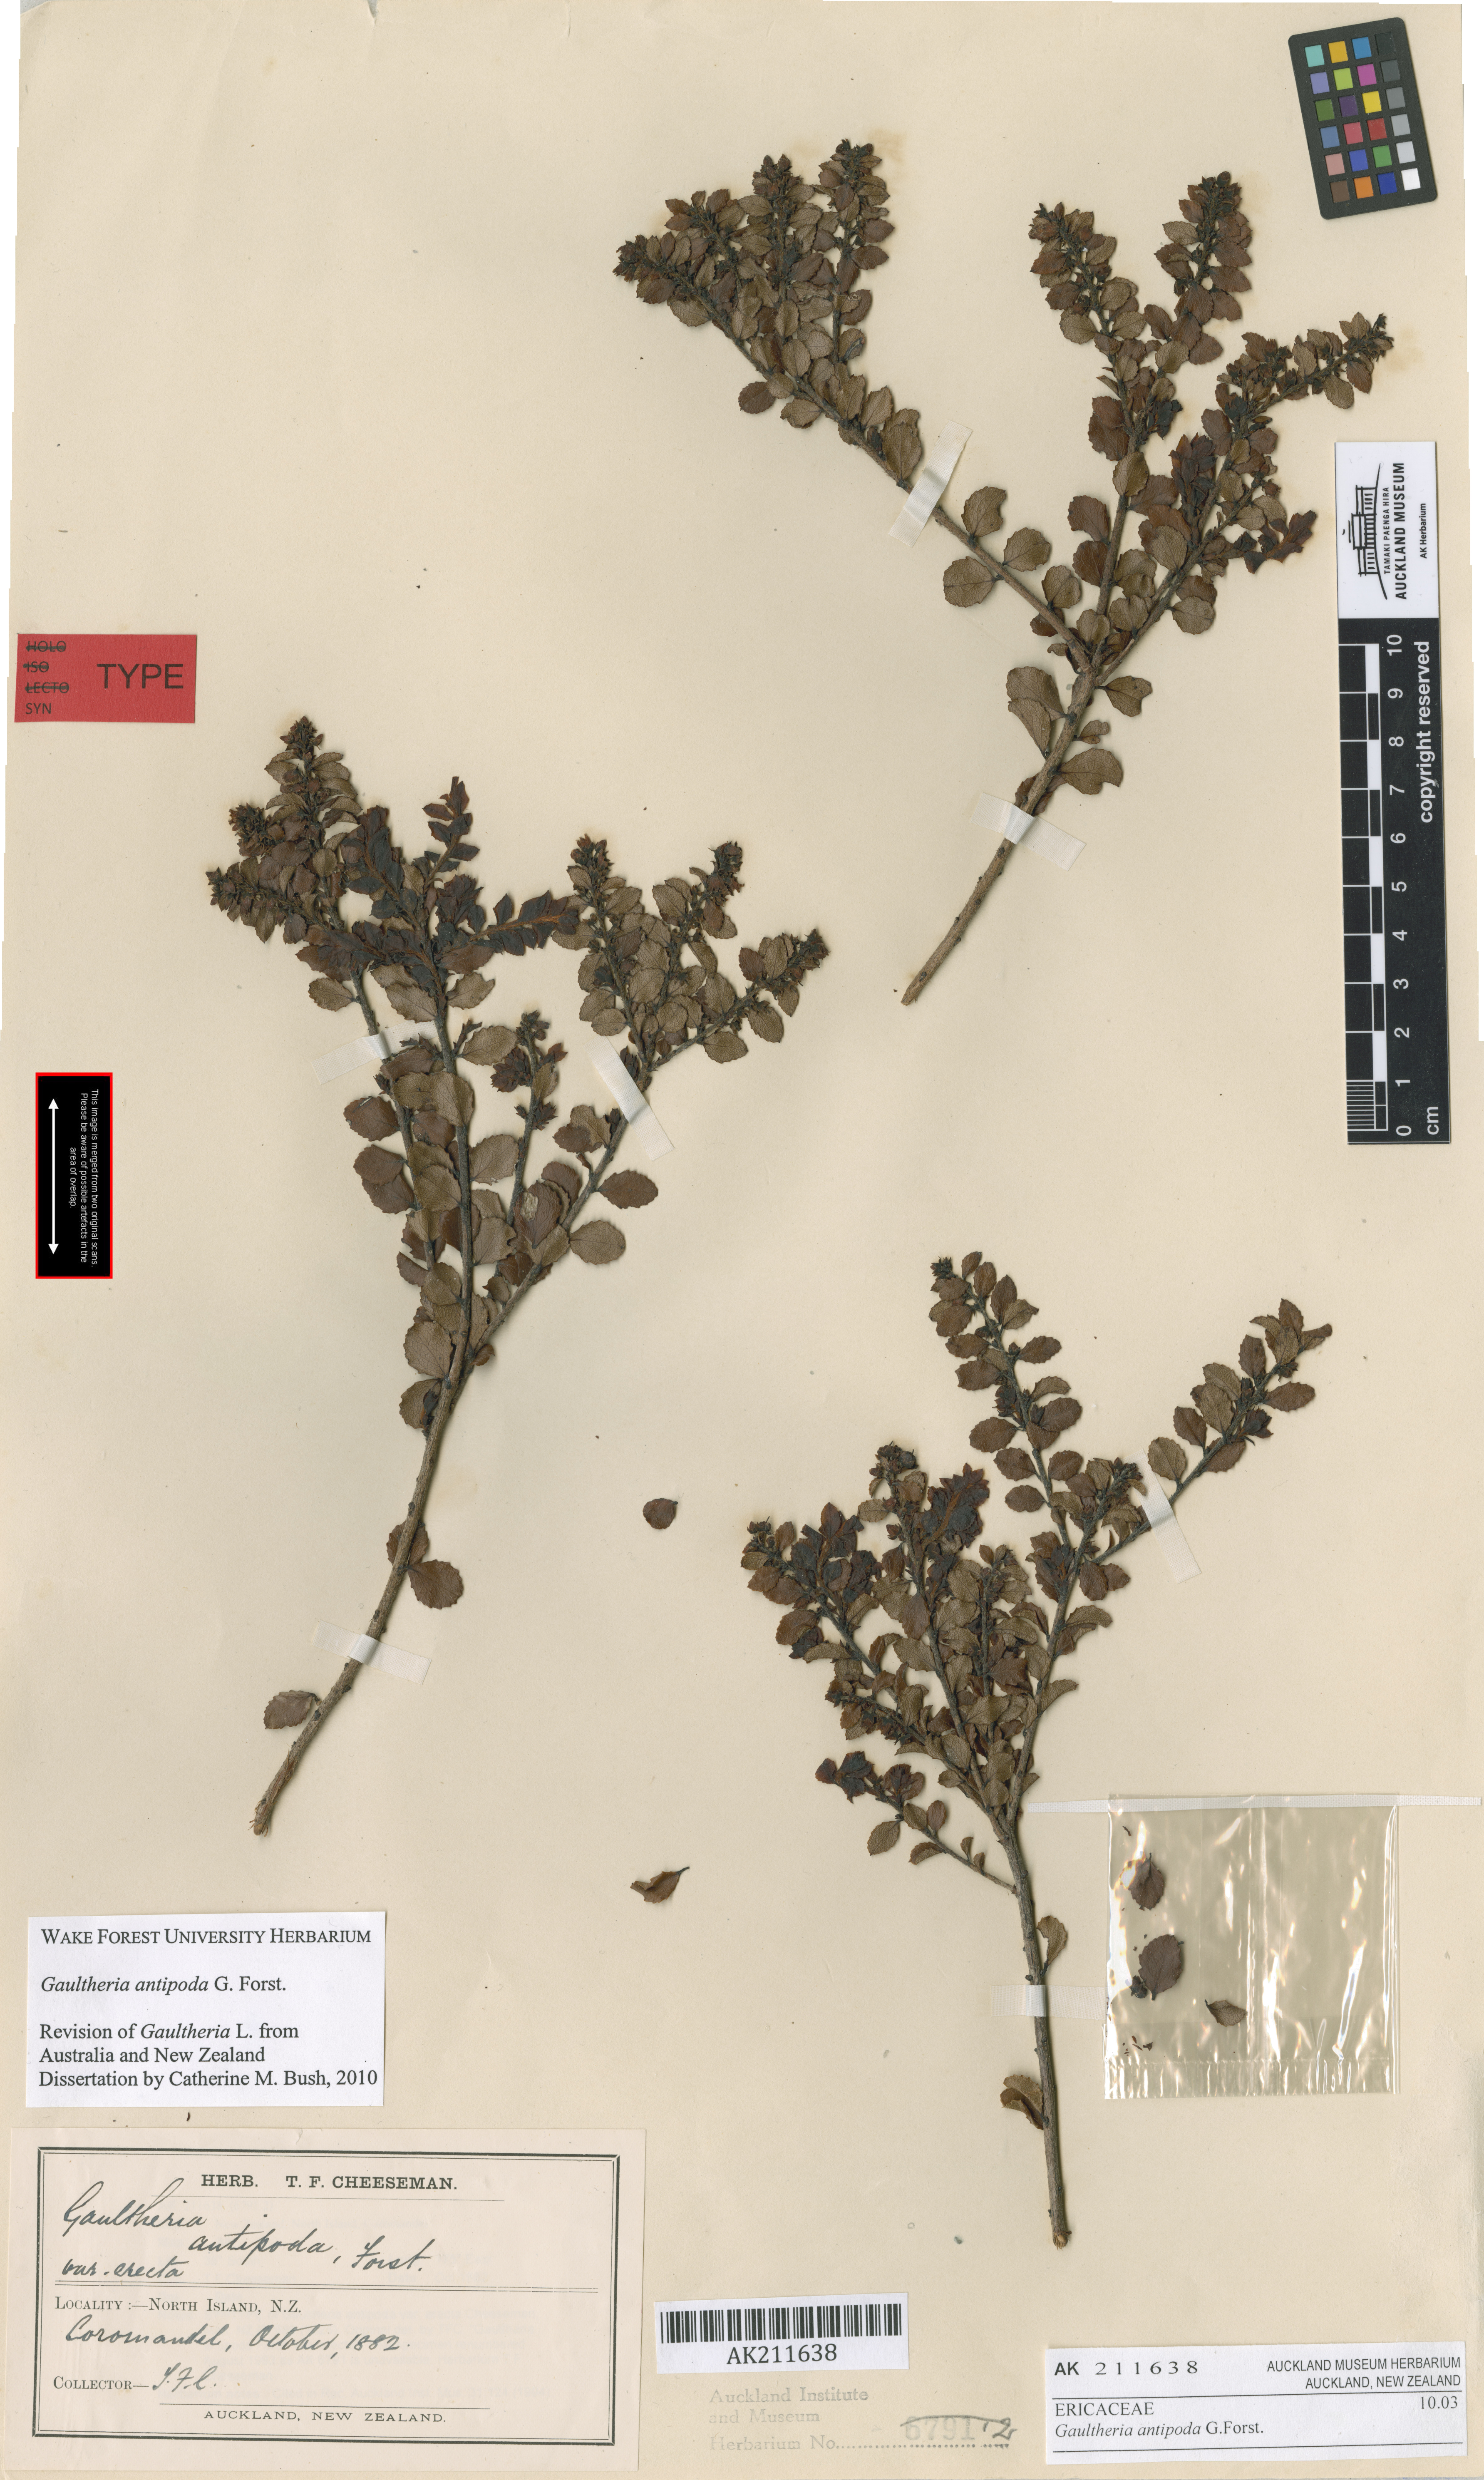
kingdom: Plantae
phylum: Tracheophyta
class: Magnoliopsida
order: Ericales
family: Ericaceae
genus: Gaultheria
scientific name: Gaultheria antipoda
